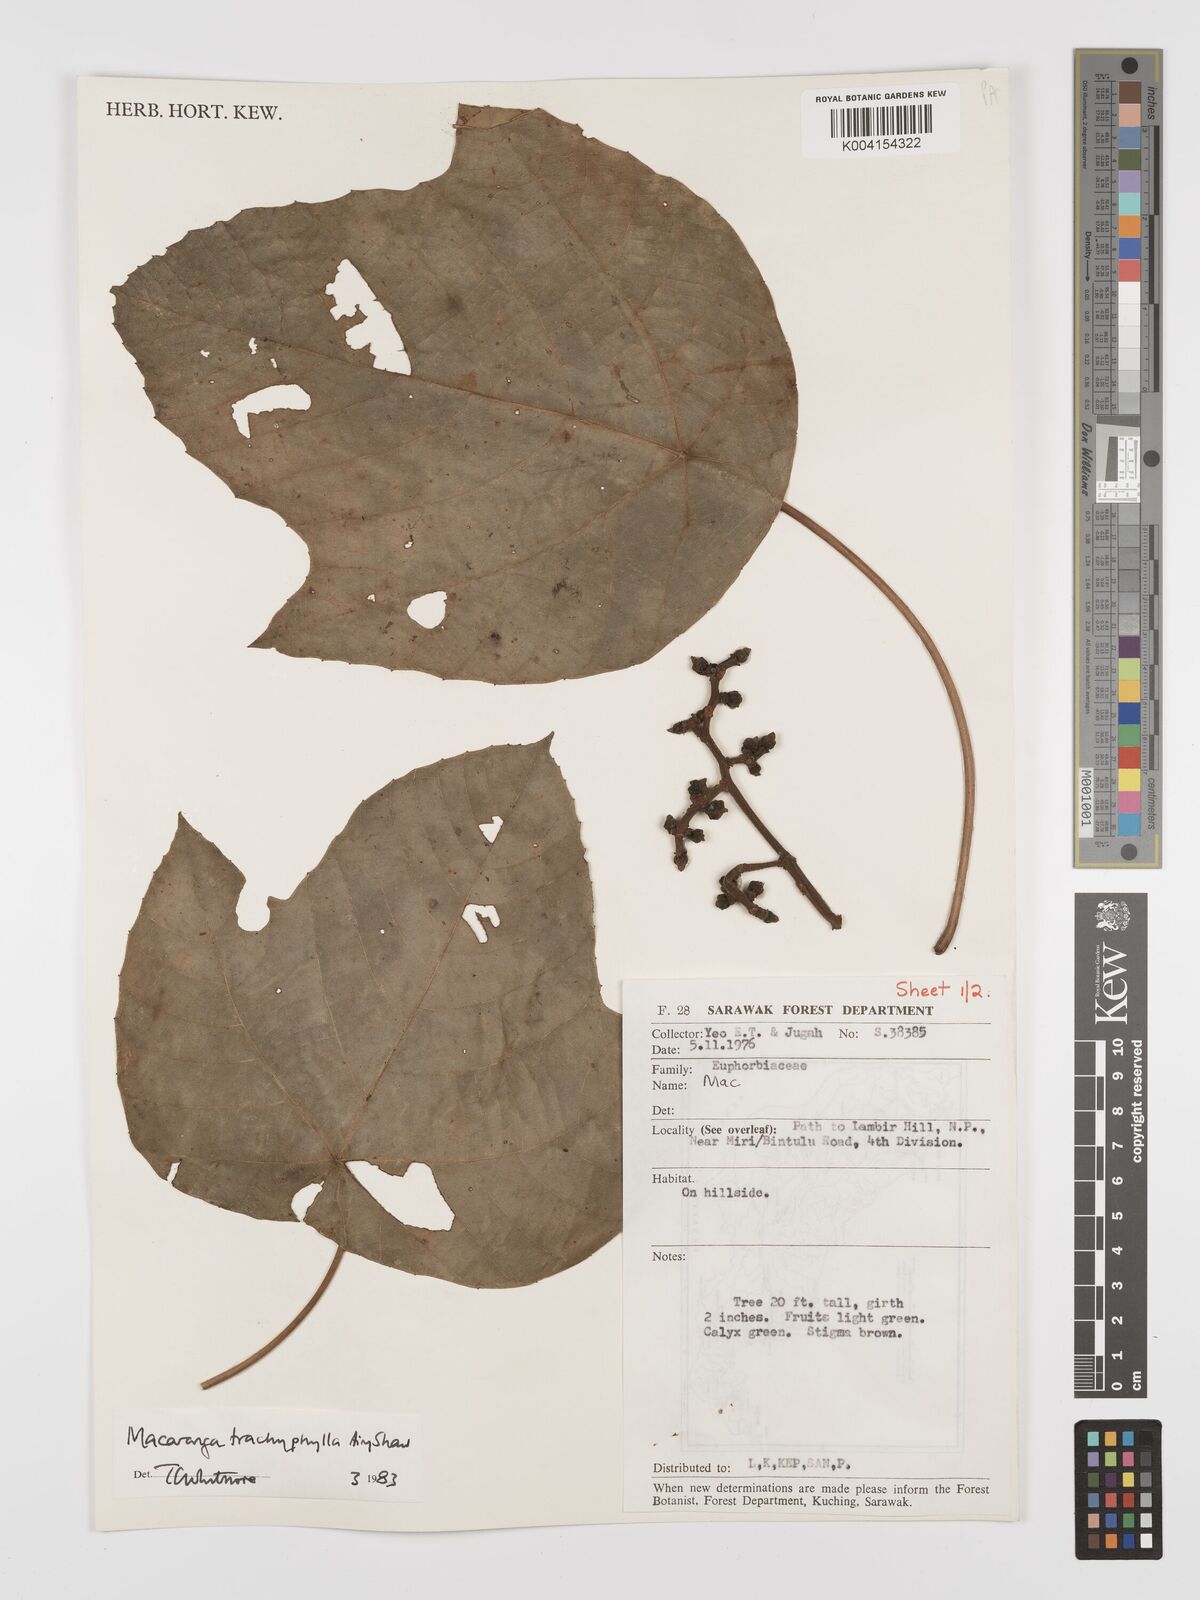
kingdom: Plantae
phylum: Tracheophyta
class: Magnoliopsida
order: Malpighiales
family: Euphorbiaceae
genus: Macaranga
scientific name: Macaranga trachyphylla
